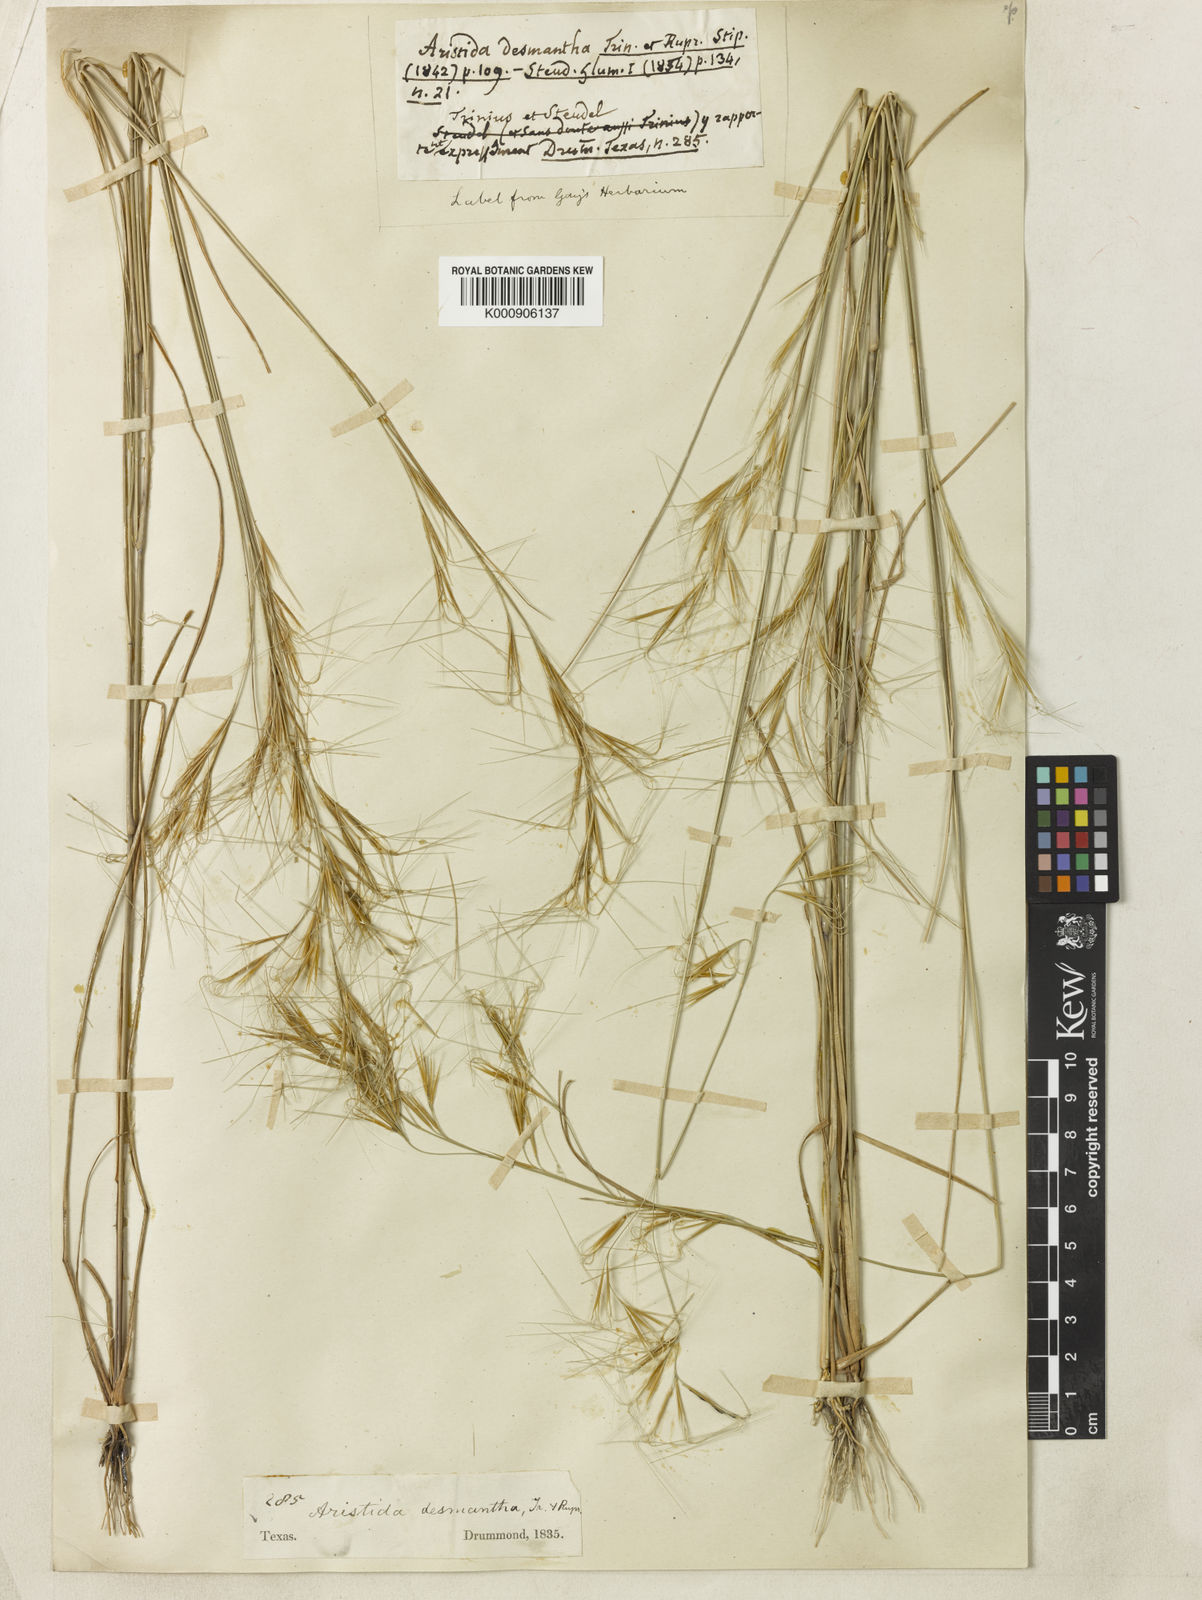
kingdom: Plantae
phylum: Tracheophyta
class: Liliopsida
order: Poales
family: Poaceae
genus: Aristida
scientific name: Aristida desmantha
